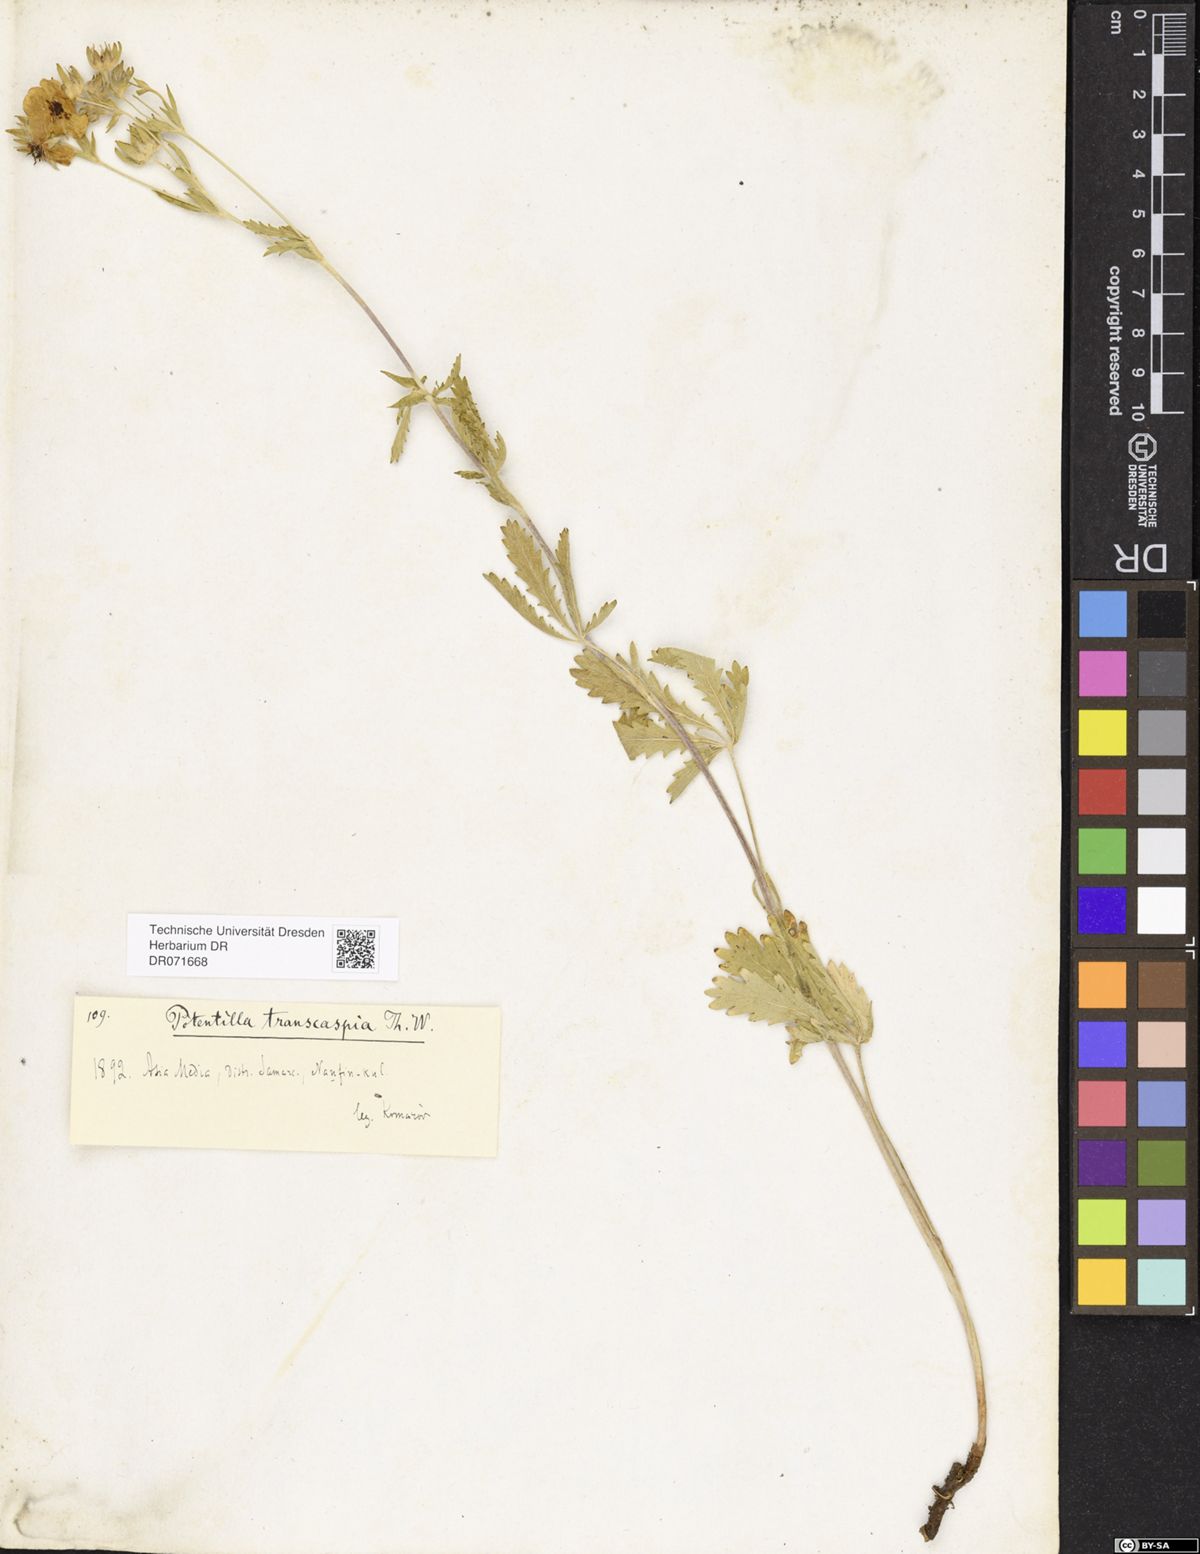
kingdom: Plantae
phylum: Tracheophyta
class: Magnoliopsida
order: Rosales
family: Rosaceae
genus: Potentilla
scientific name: Potentilla pedata
